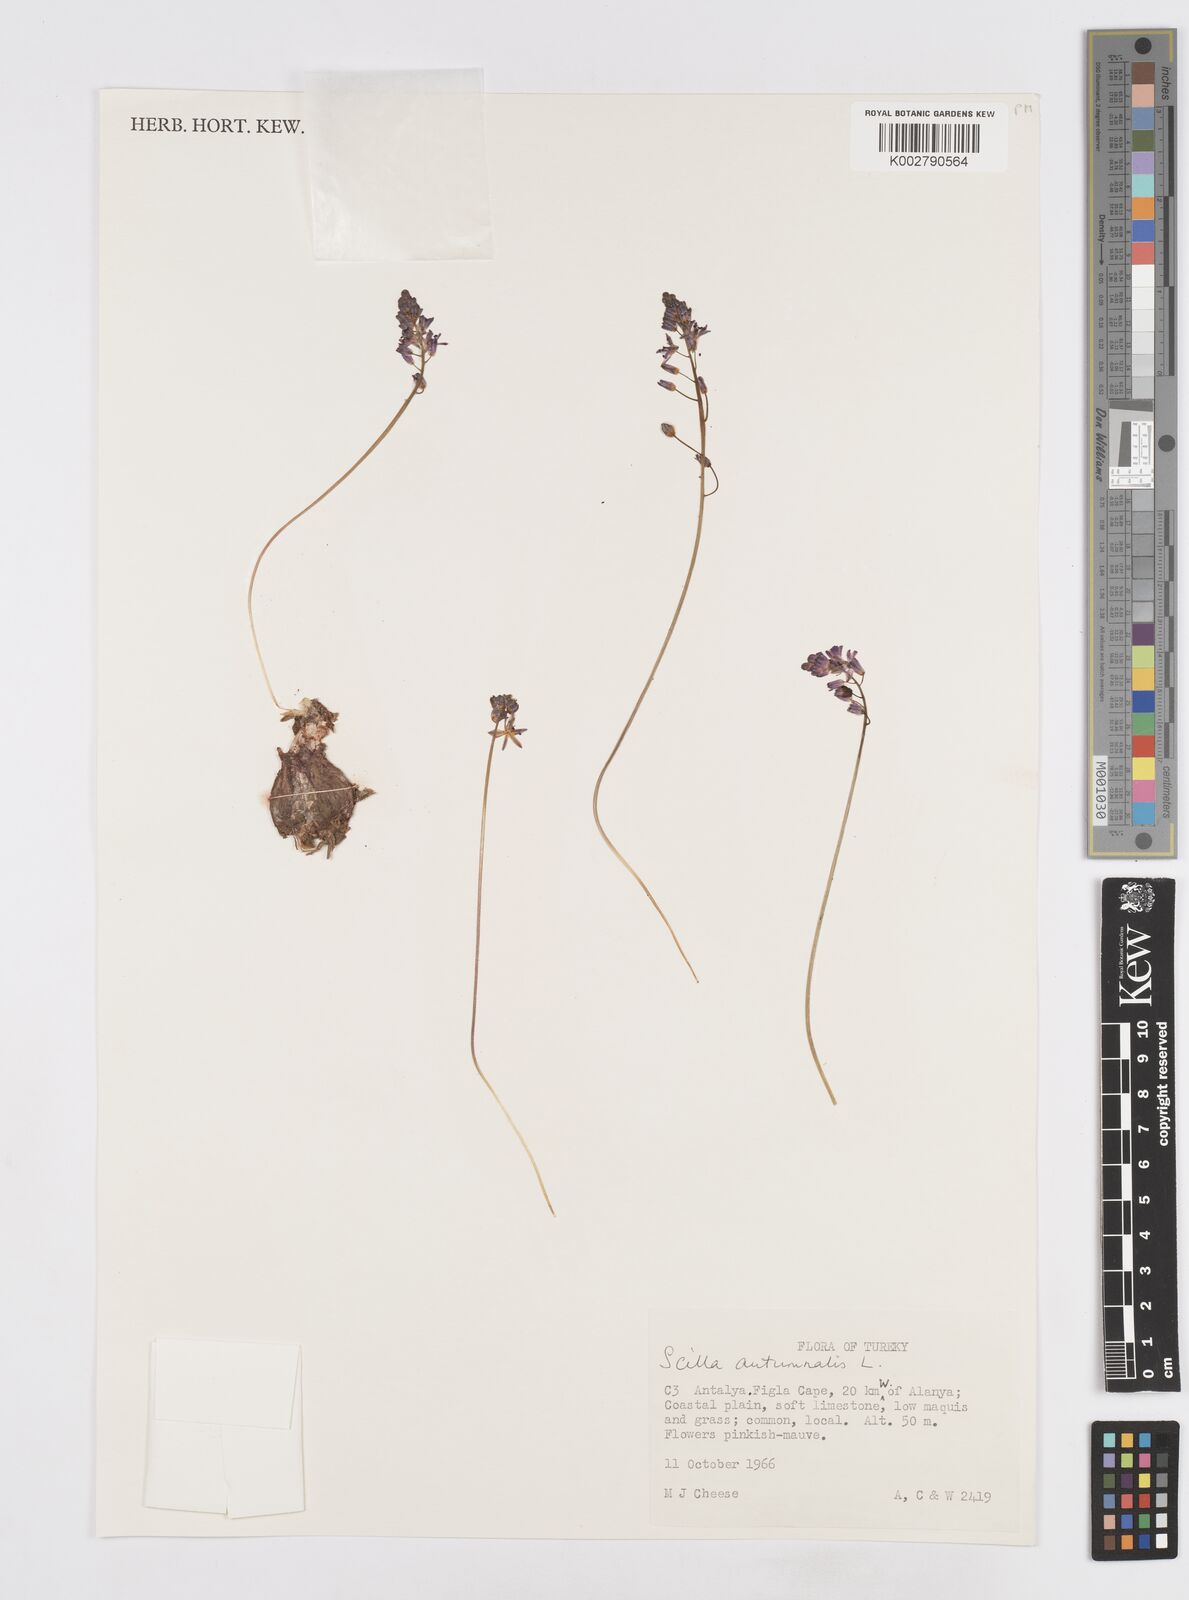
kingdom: Plantae
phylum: Tracheophyta
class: Liliopsida
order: Asparagales
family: Asparagaceae
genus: Prospero
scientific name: Prospero autumnale
